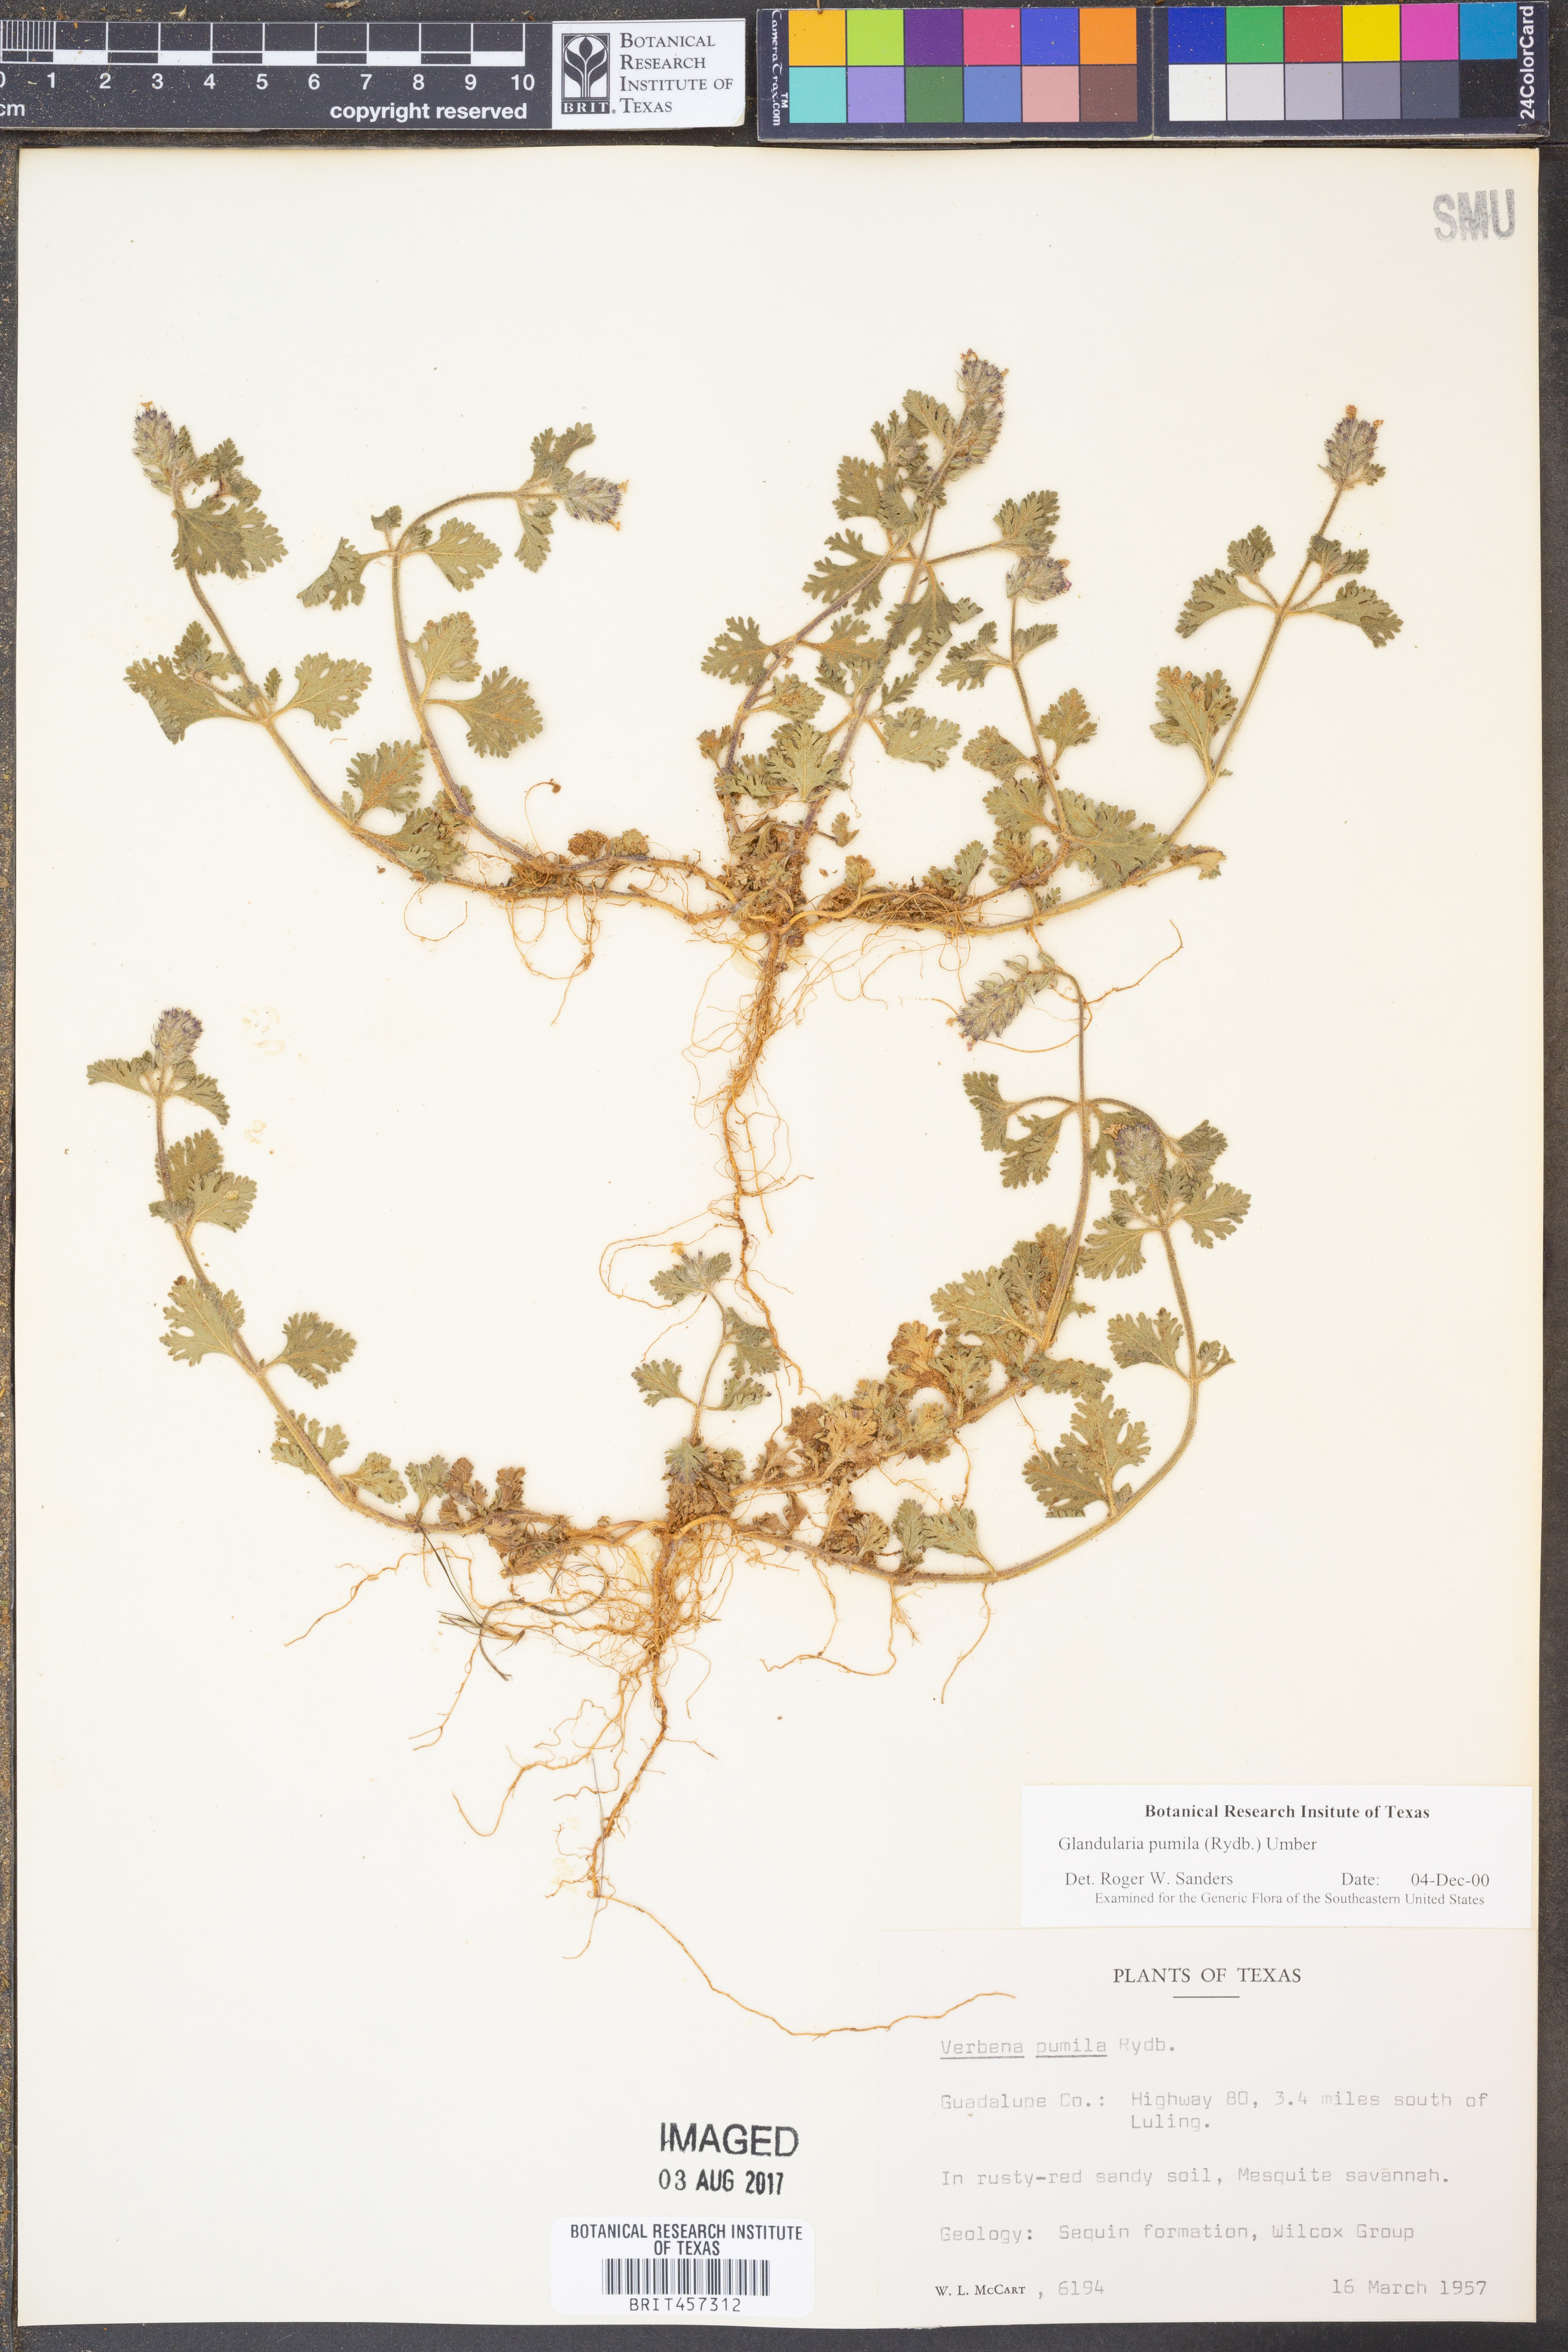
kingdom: Plantae
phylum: Tracheophyta
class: Magnoliopsida
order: Lamiales
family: Verbenaceae
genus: Verbena
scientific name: Verbena pumila
